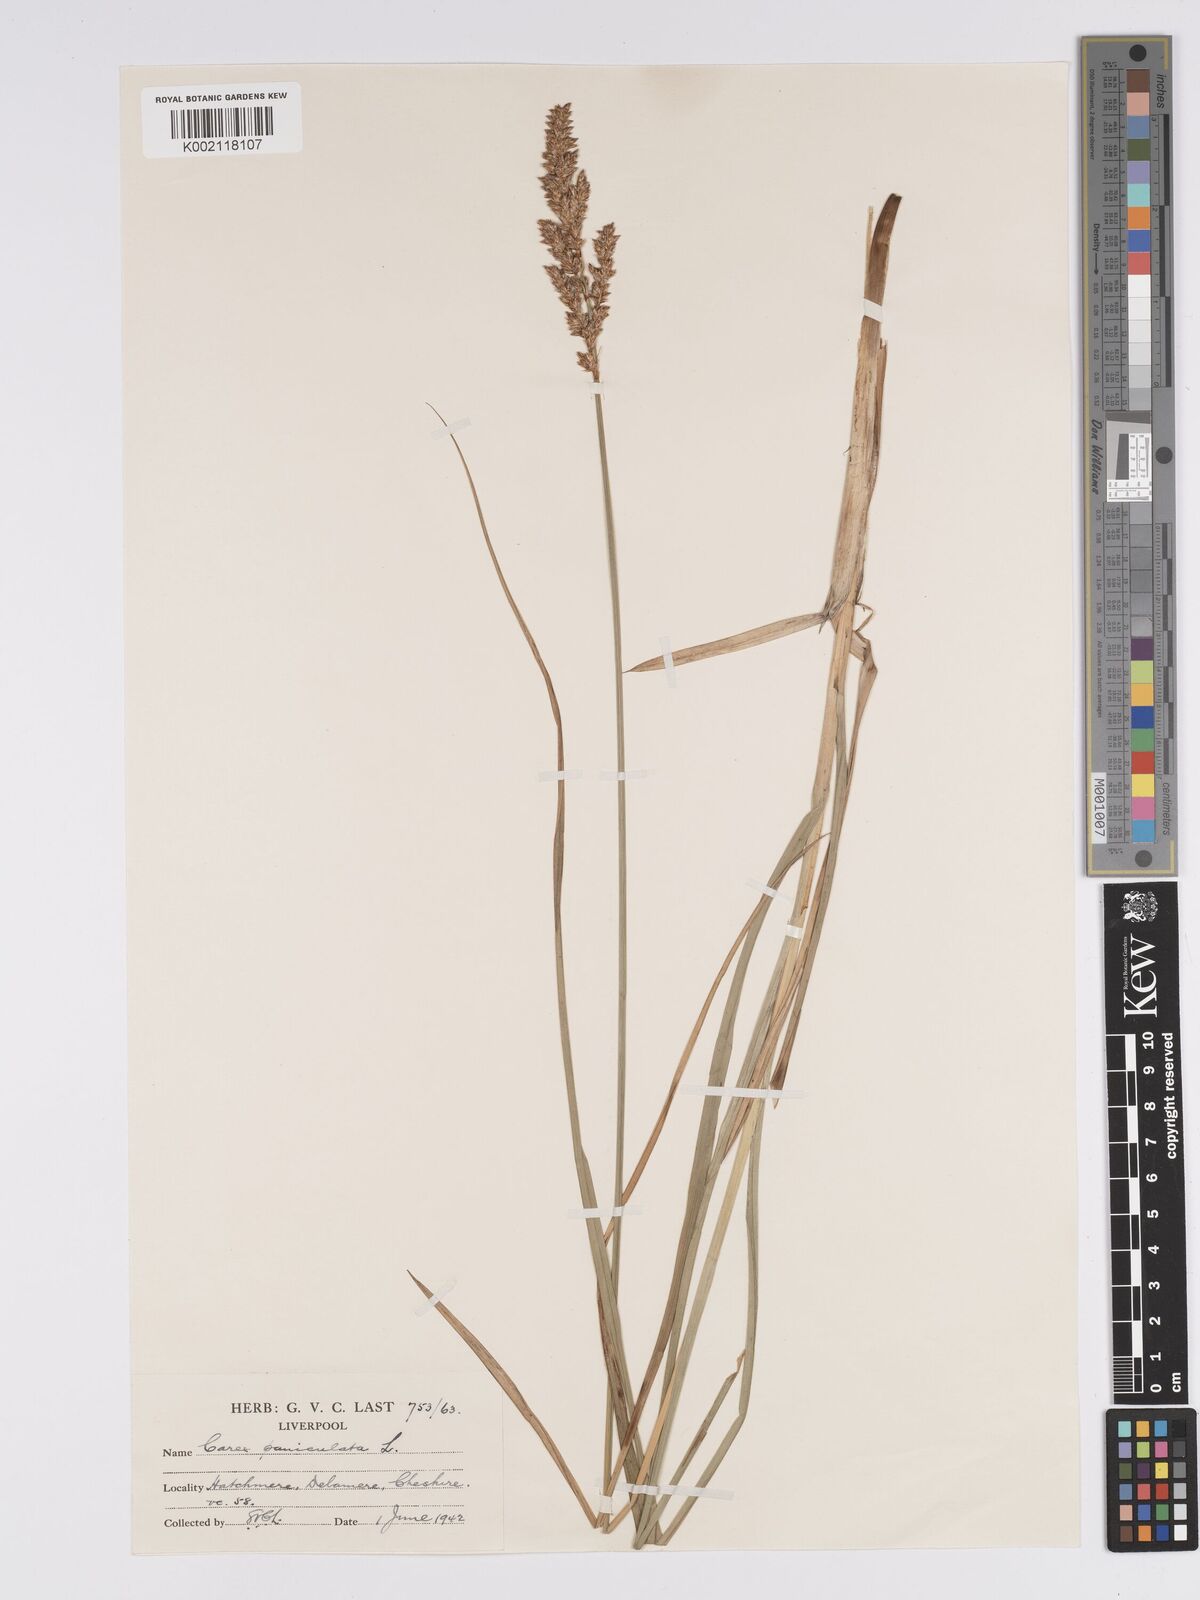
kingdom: Plantae
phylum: Tracheophyta
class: Liliopsida
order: Poales
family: Cyperaceae
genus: Carex
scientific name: Carex paniculata
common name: Greater tussock-sedge
